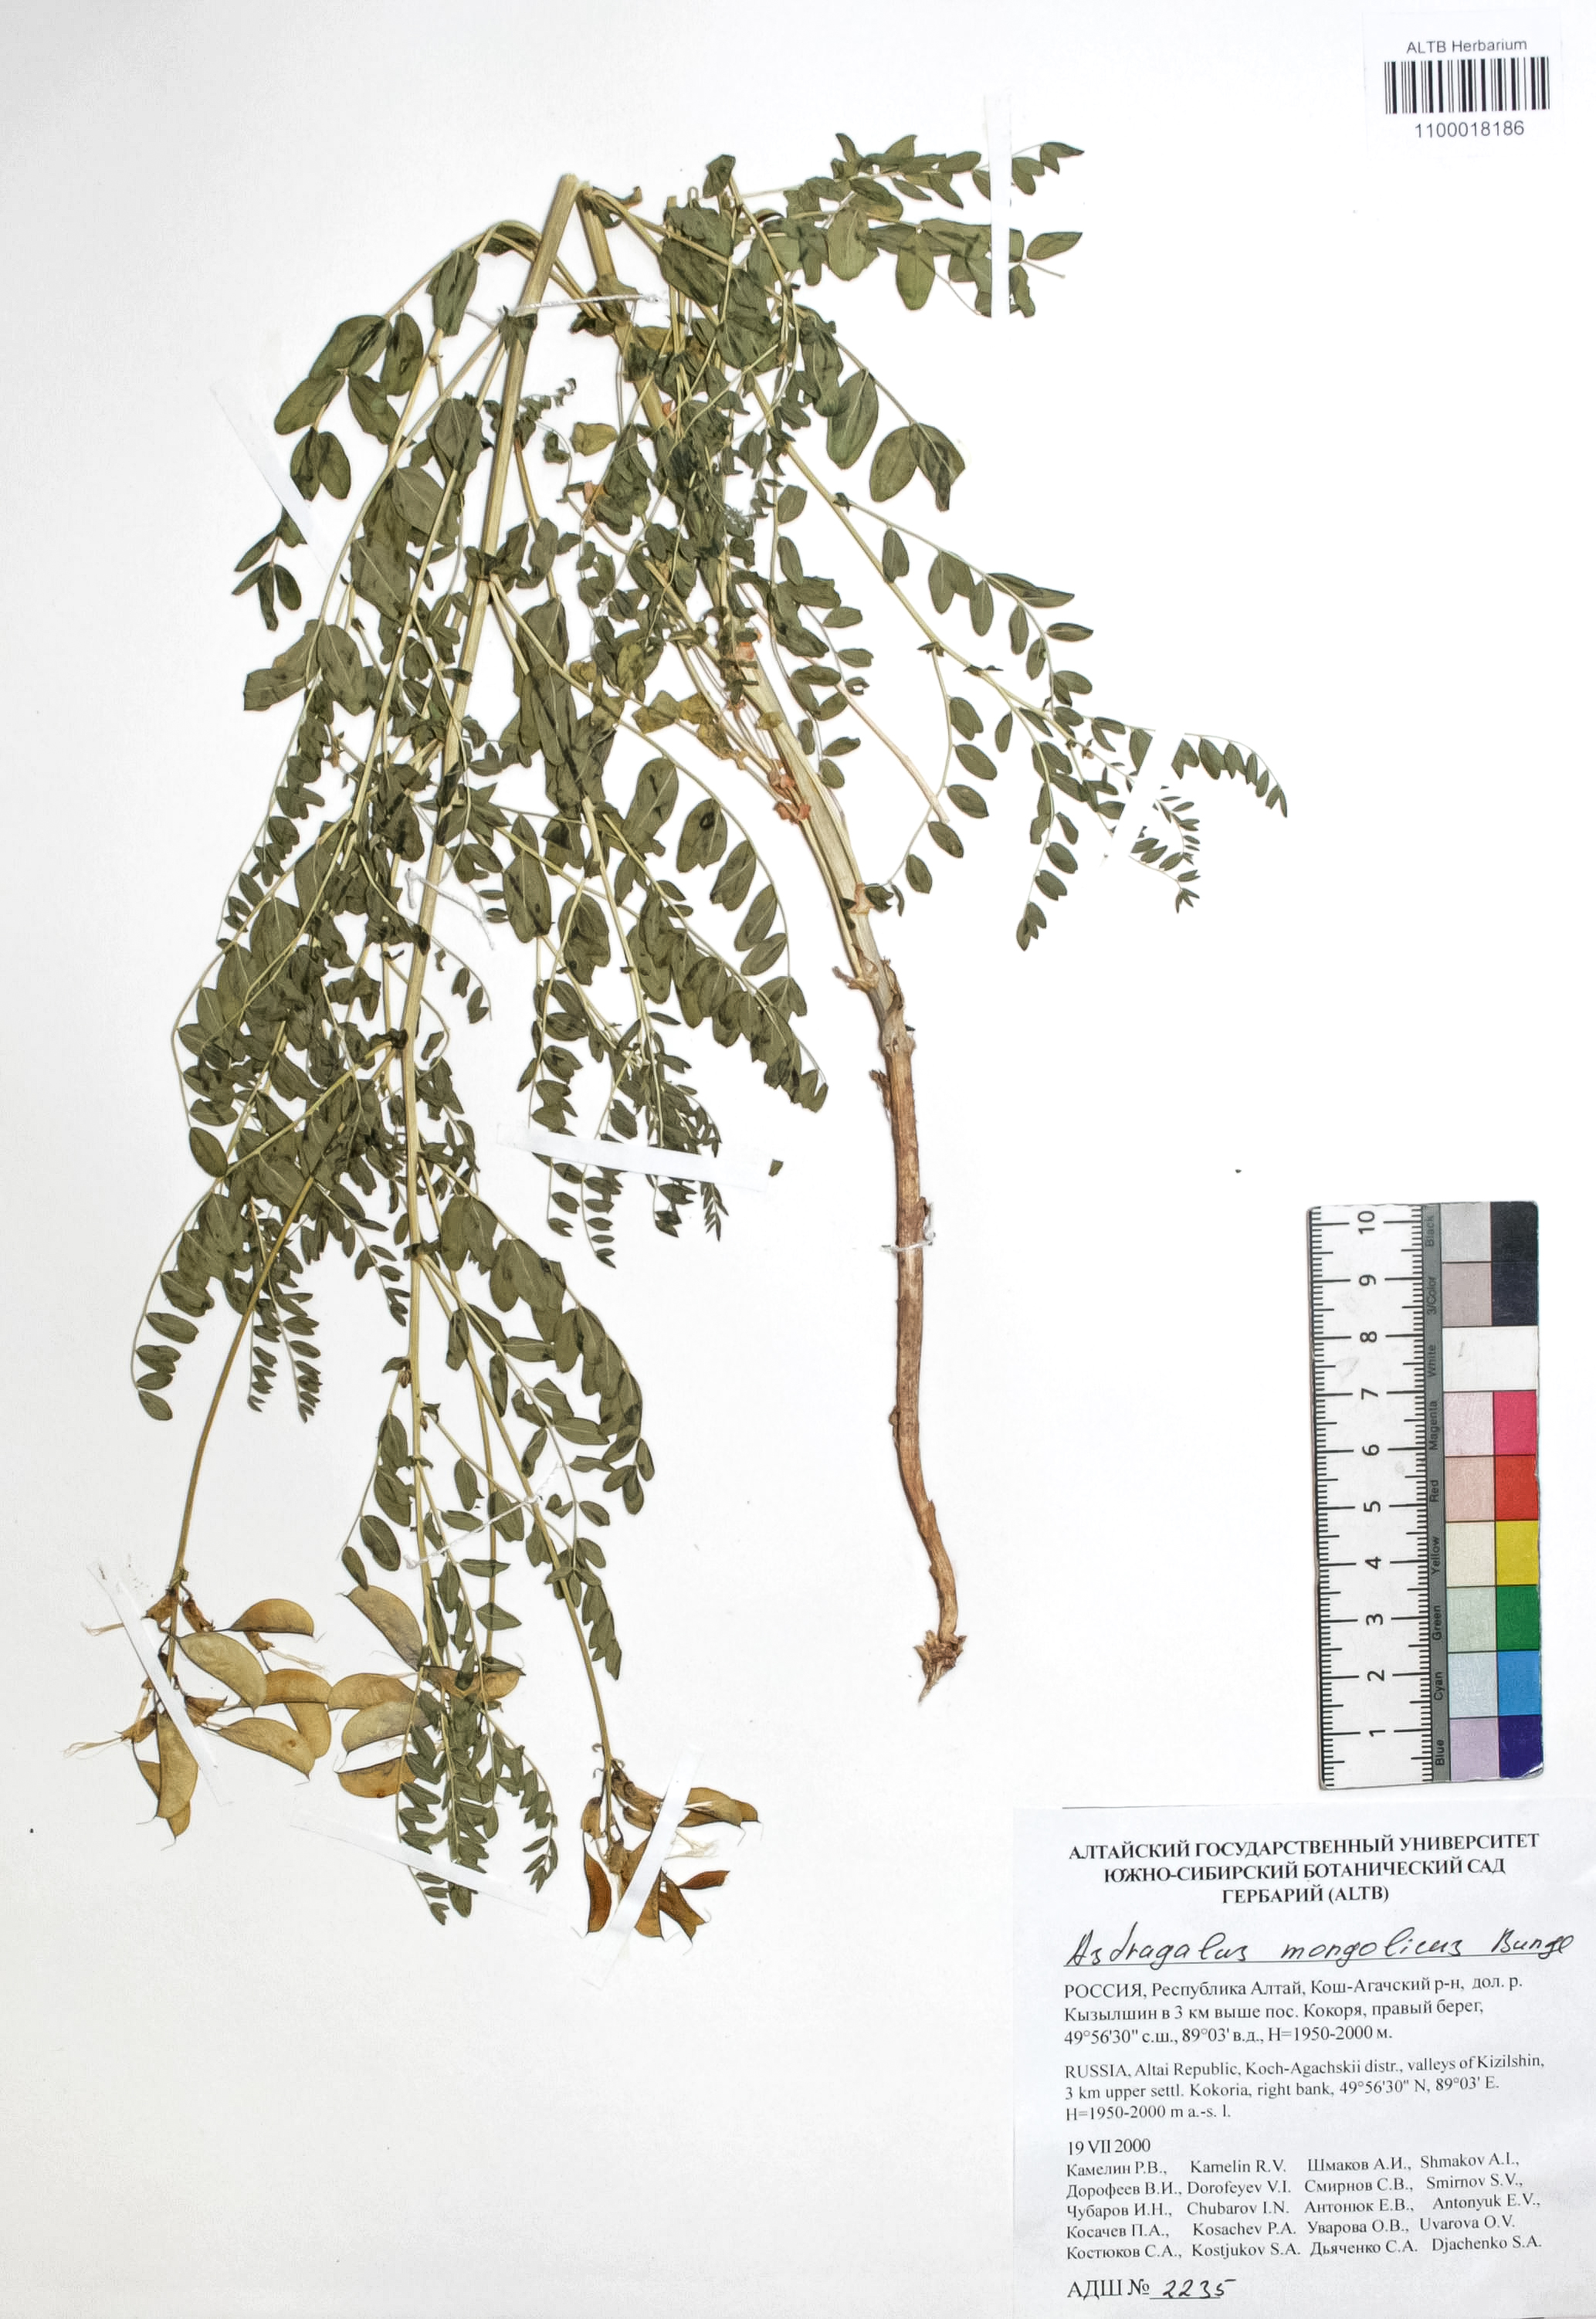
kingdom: Plantae
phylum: Tracheophyta
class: Magnoliopsida
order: Fabales
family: Fabaceae
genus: Astragalus
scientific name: Astragalus mongolicus
